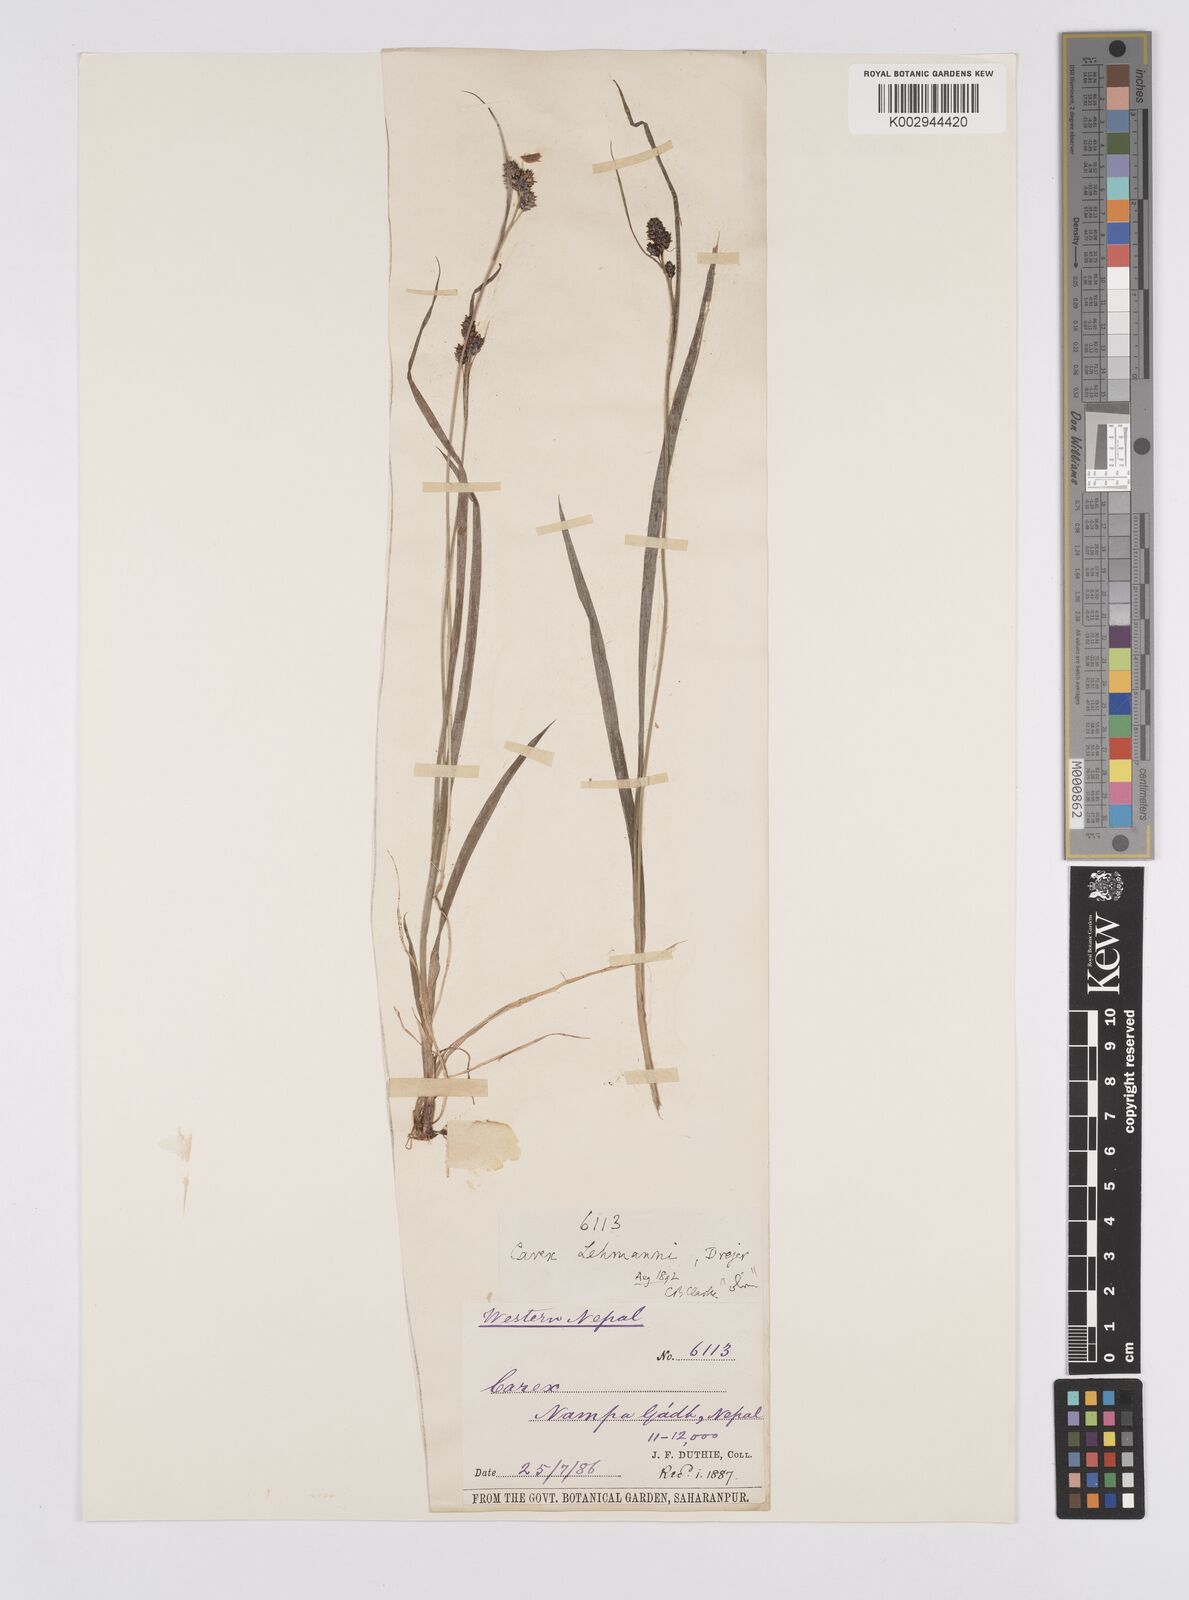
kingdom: Plantae
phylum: Tracheophyta
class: Liliopsida
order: Poales
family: Cyperaceae
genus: Carex
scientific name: Carex lehmannii
